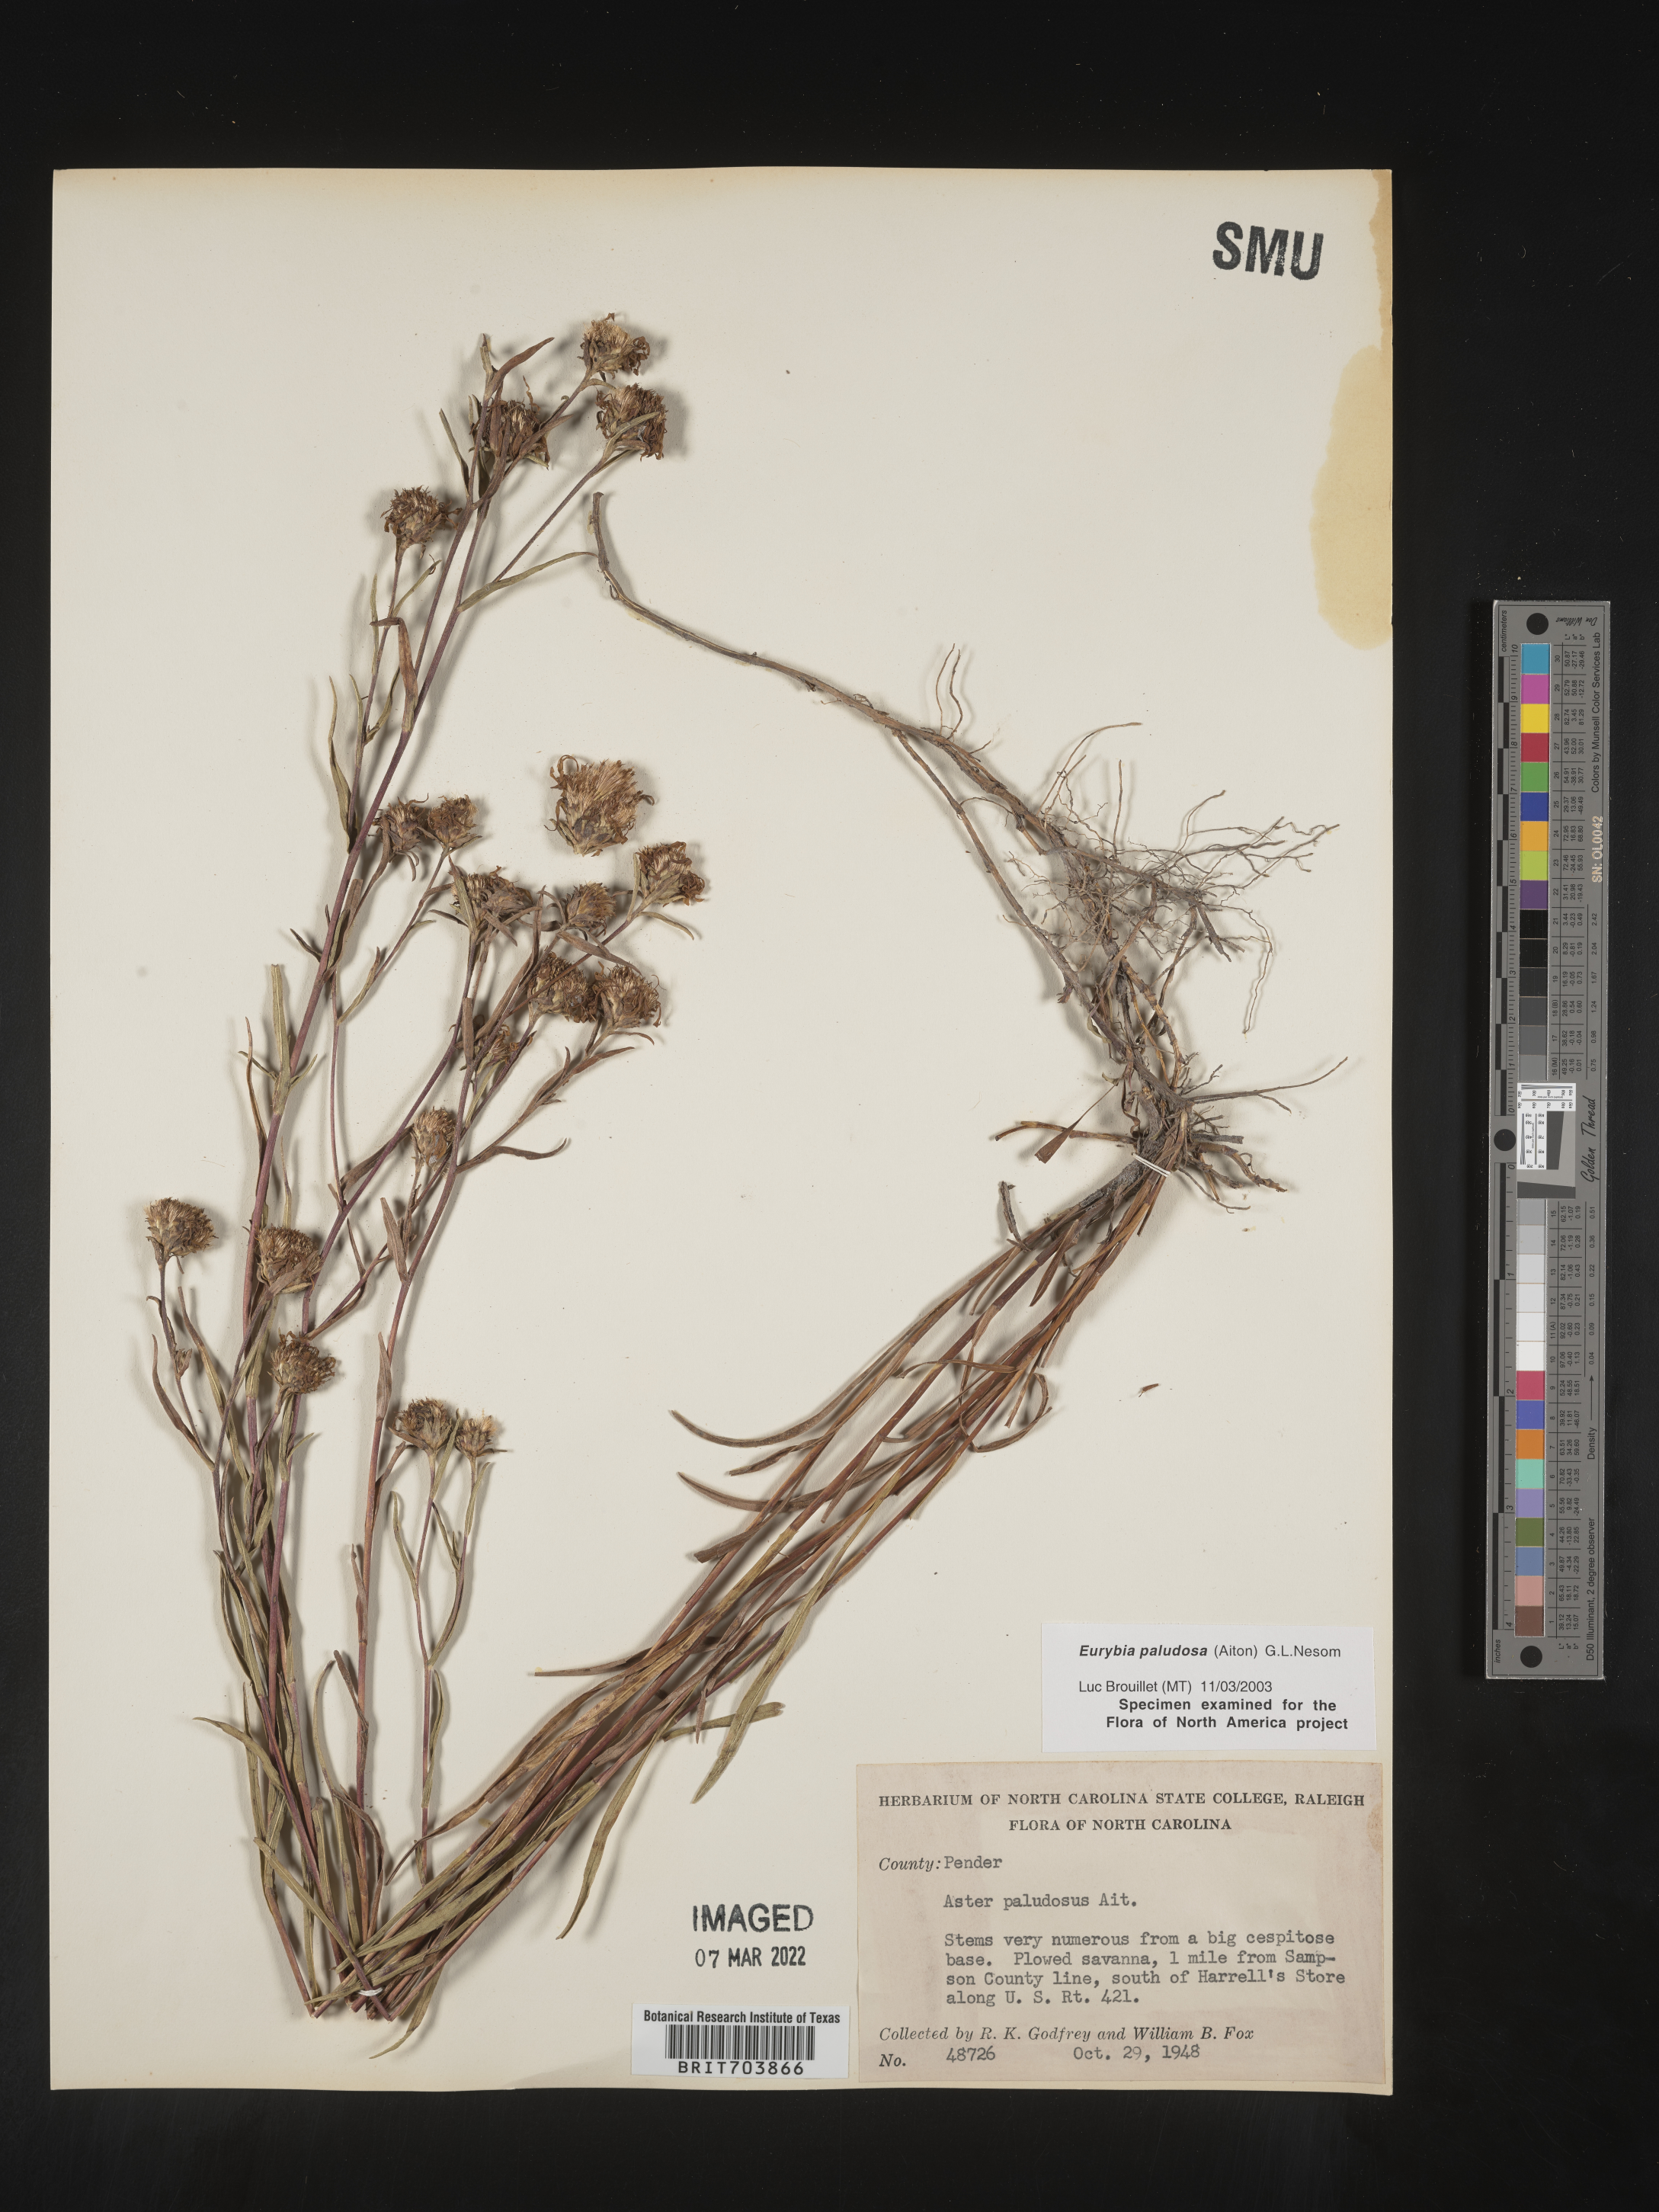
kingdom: Plantae
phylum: Tracheophyta
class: Magnoliopsida
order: Asterales
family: Asteraceae
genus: Eurybia
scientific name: Eurybia paludosa
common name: Southern swamp aster
